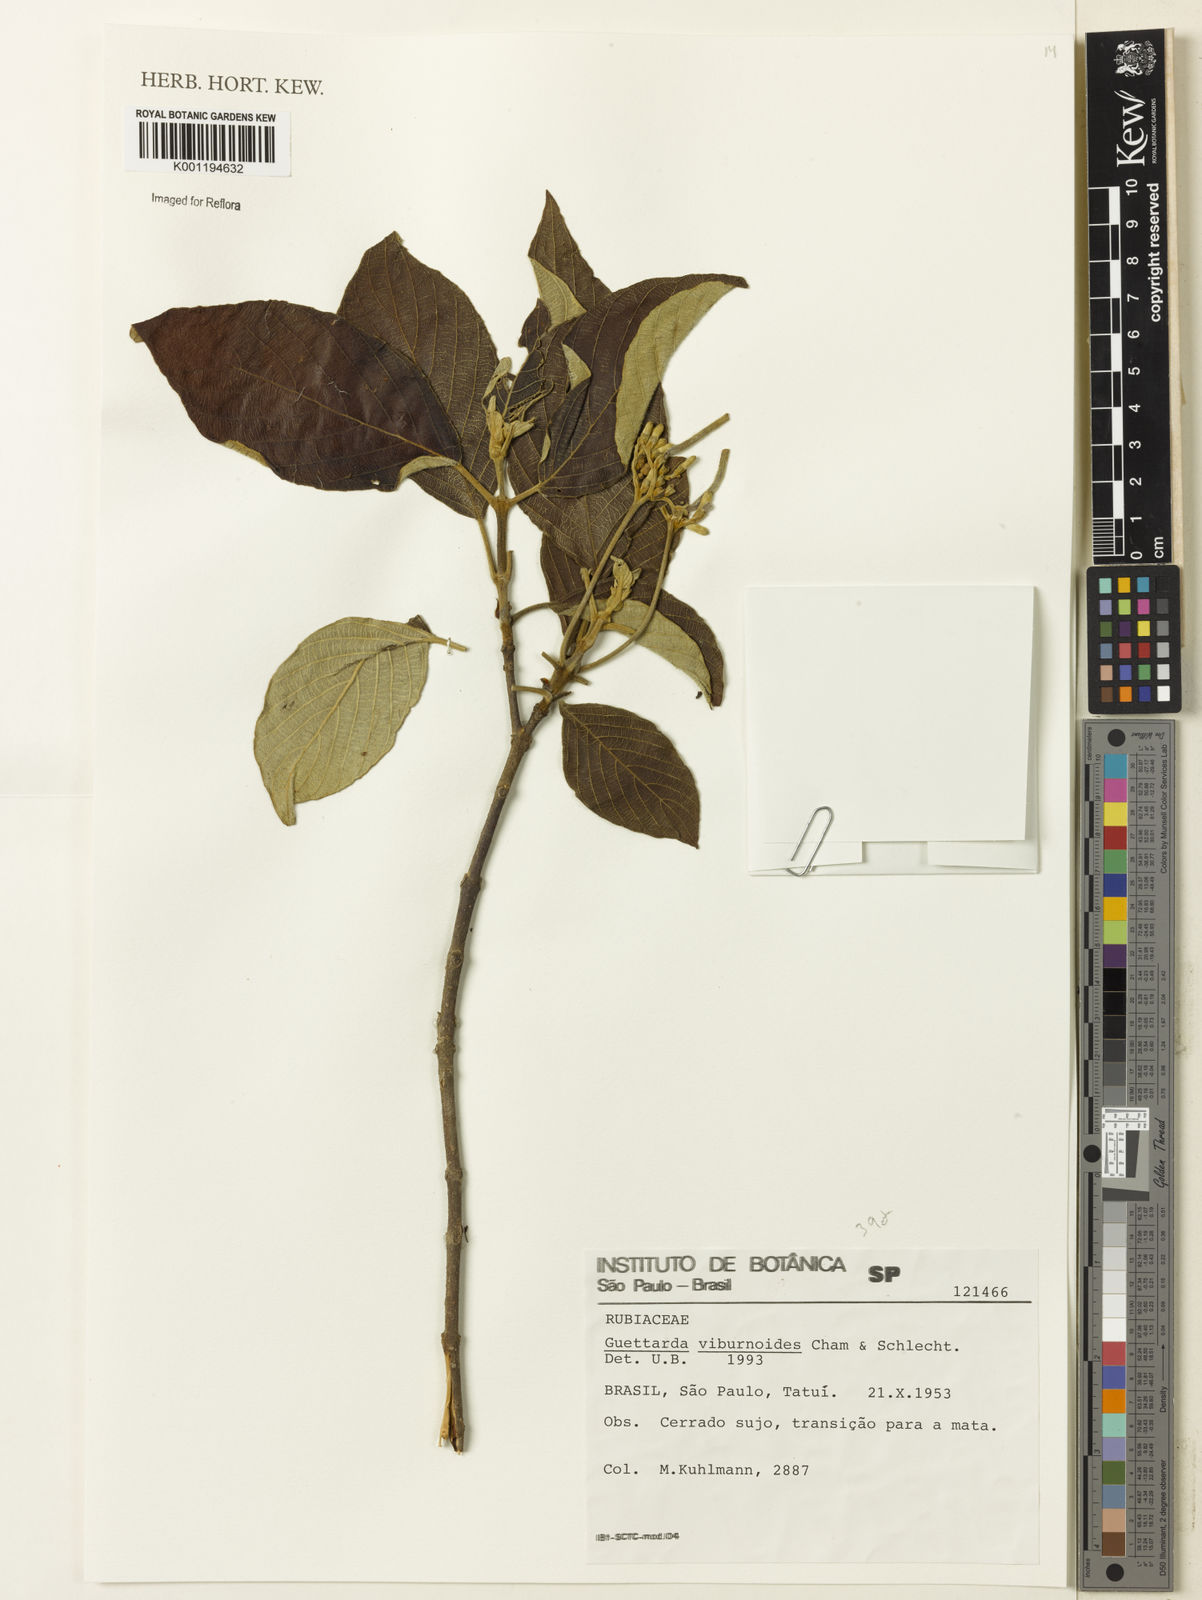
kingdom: Plantae
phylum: Tracheophyta
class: Magnoliopsida
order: Gentianales
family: Rubiaceae
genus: Guettarda
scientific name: Guettarda viburnoides
